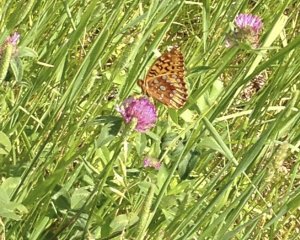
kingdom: Animalia
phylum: Arthropoda
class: Insecta
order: Lepidoptera
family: Nymphalidae
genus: Speyeria
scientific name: Speyeria cybele
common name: Great Spangled Fritillary
